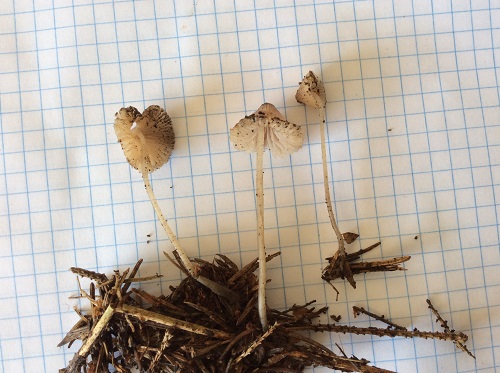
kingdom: Fungi
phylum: Basidiomycota
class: Agaricomycetes
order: Agaricales
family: Mycenaceae
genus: Mycena
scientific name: Mycena metata
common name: rødlig huesvamp
